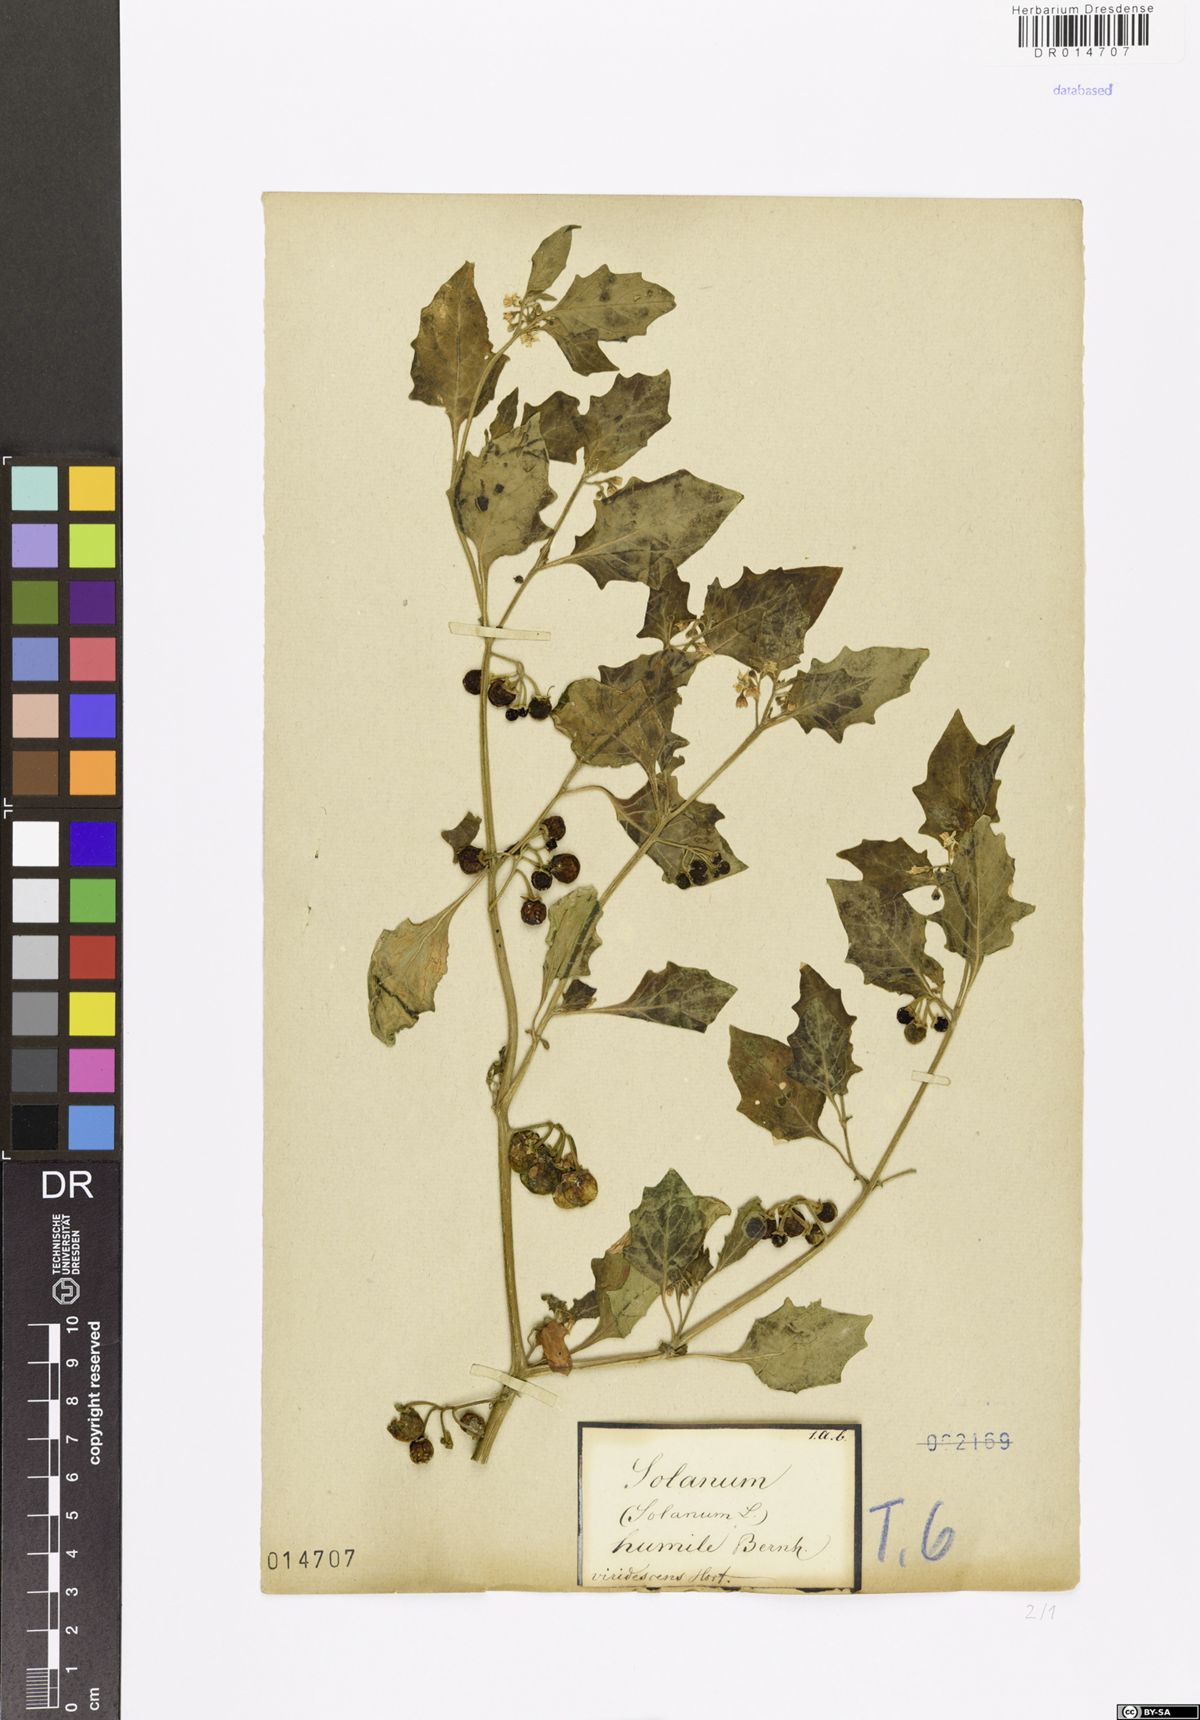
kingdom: Plantae
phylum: Tracheophyta
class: Magnoliopsida
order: Solanales
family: Solanaceae
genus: Solanum
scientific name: Solanum nigrum
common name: Black nightshade
